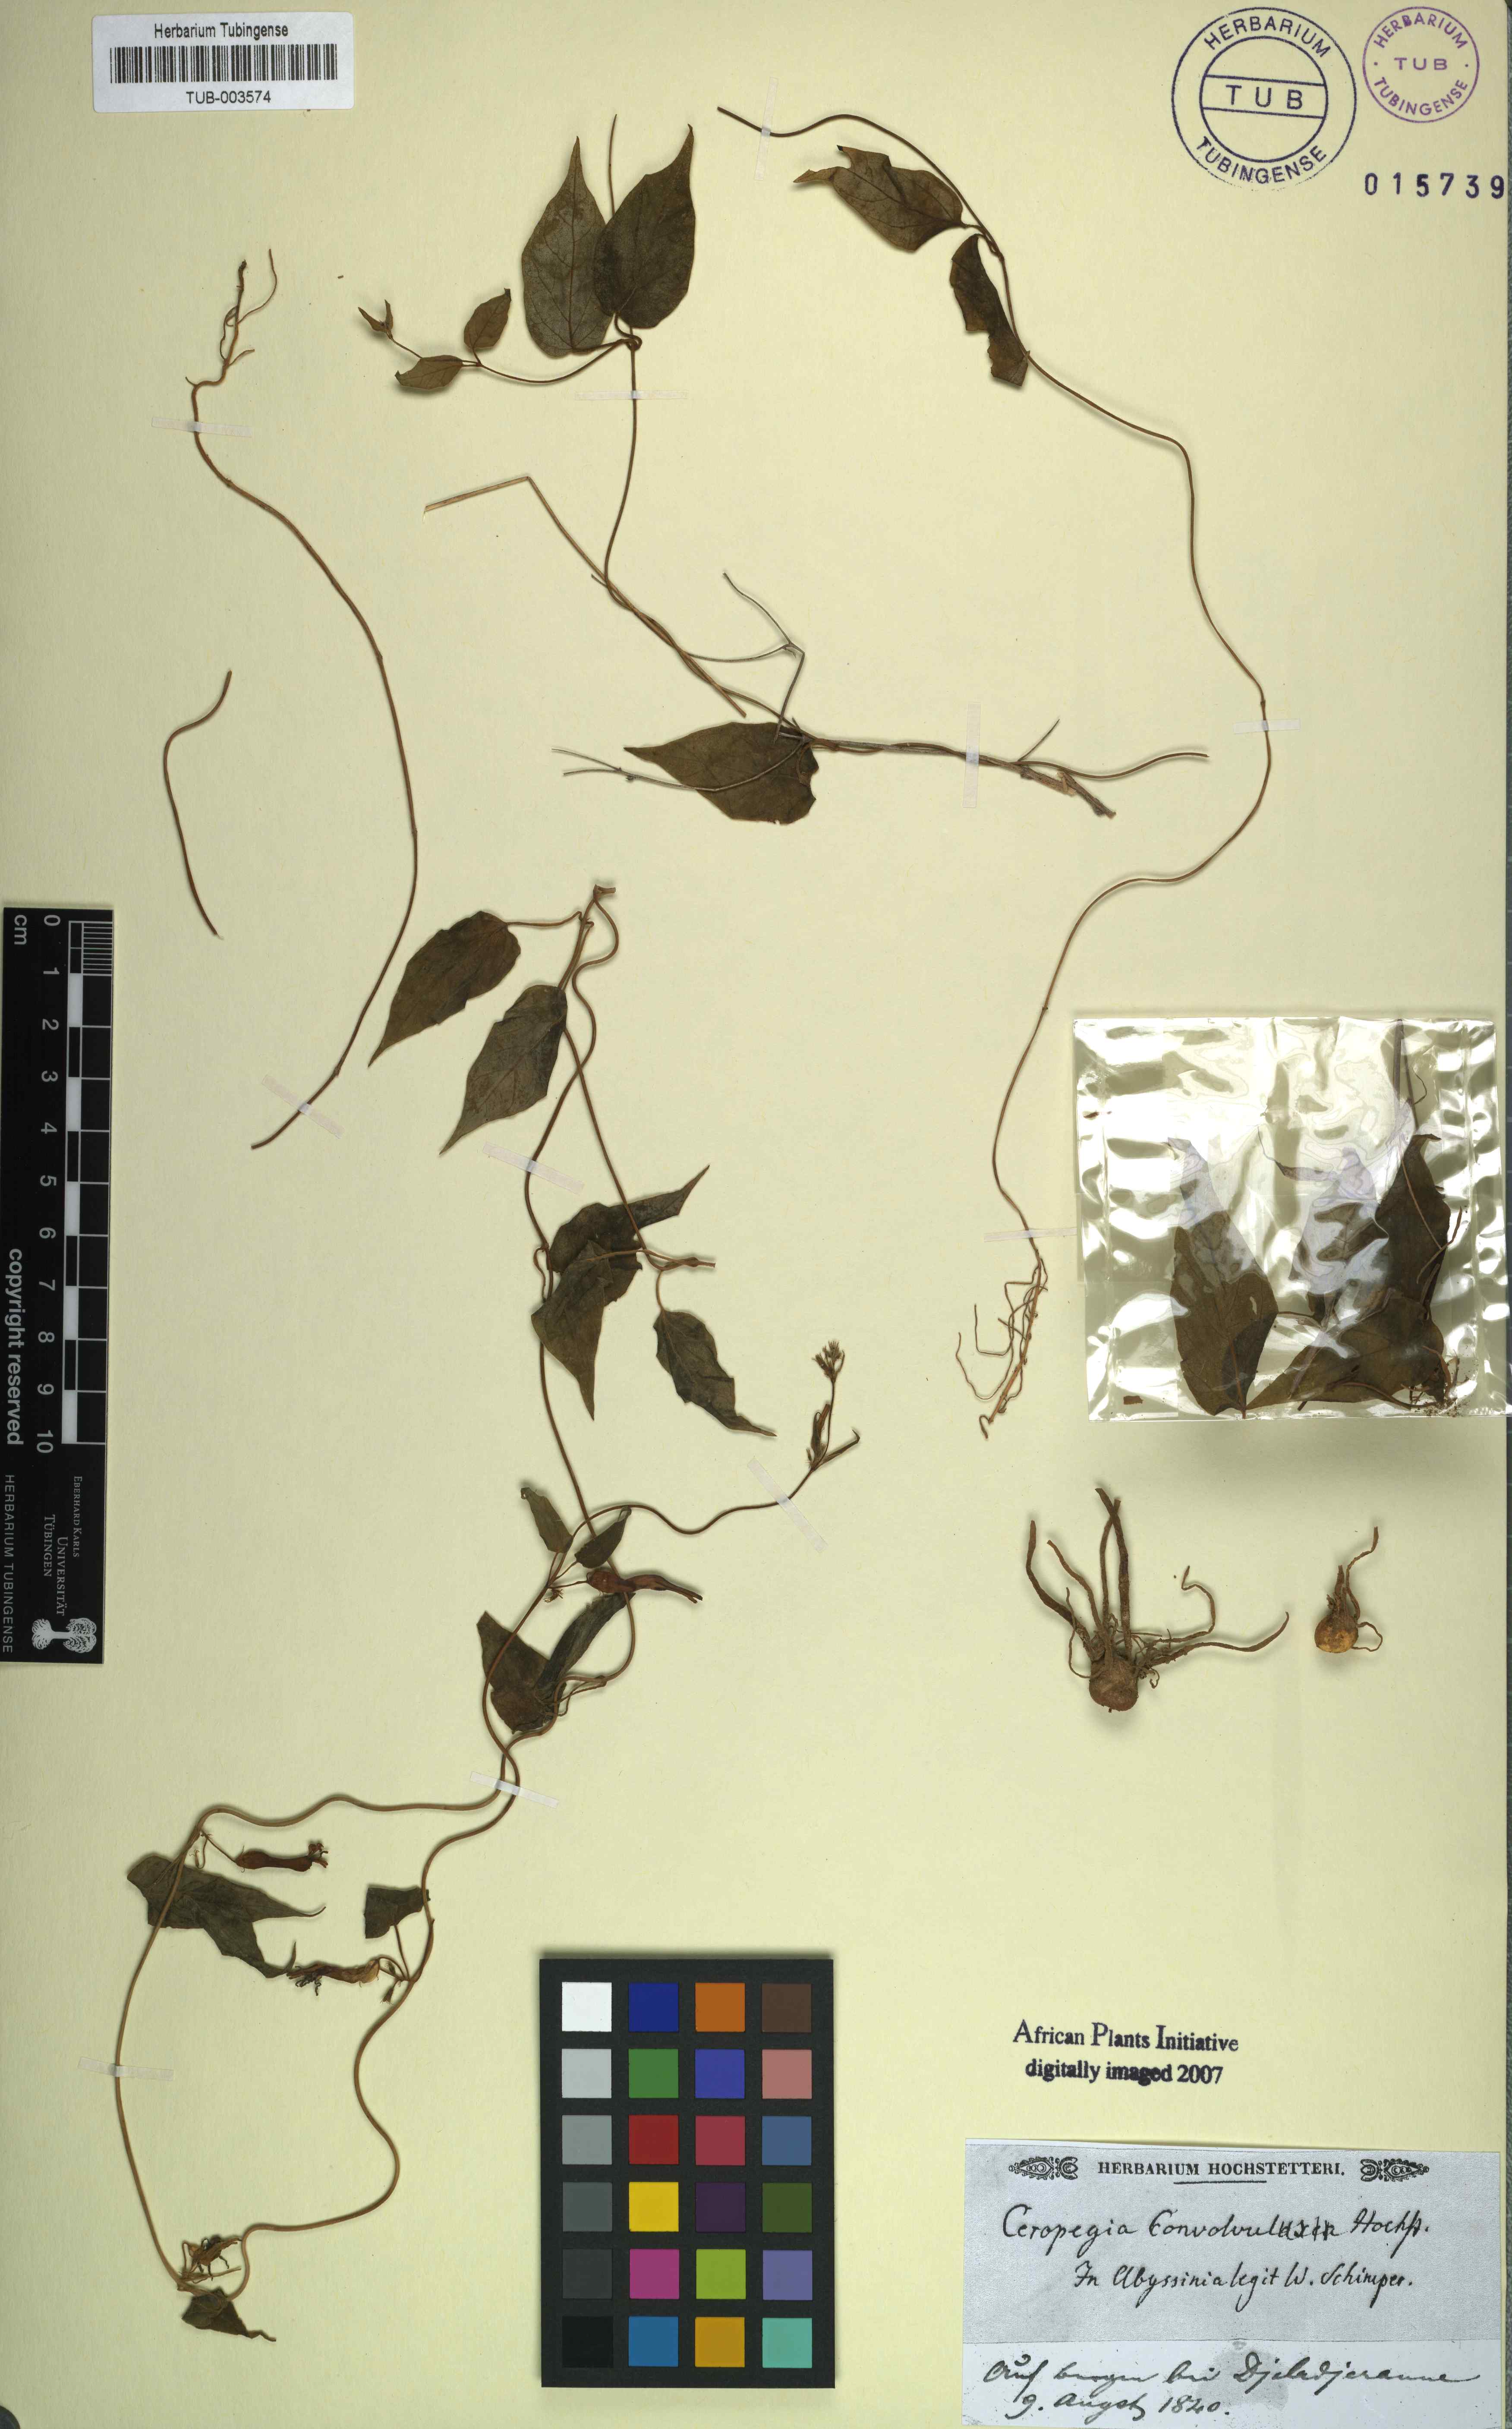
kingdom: Plantae
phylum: Tracheophyta
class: Magnoliopsida
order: Gentianales
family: Apocynaceae
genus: Ceropegia
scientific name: Ceropegia ringens
